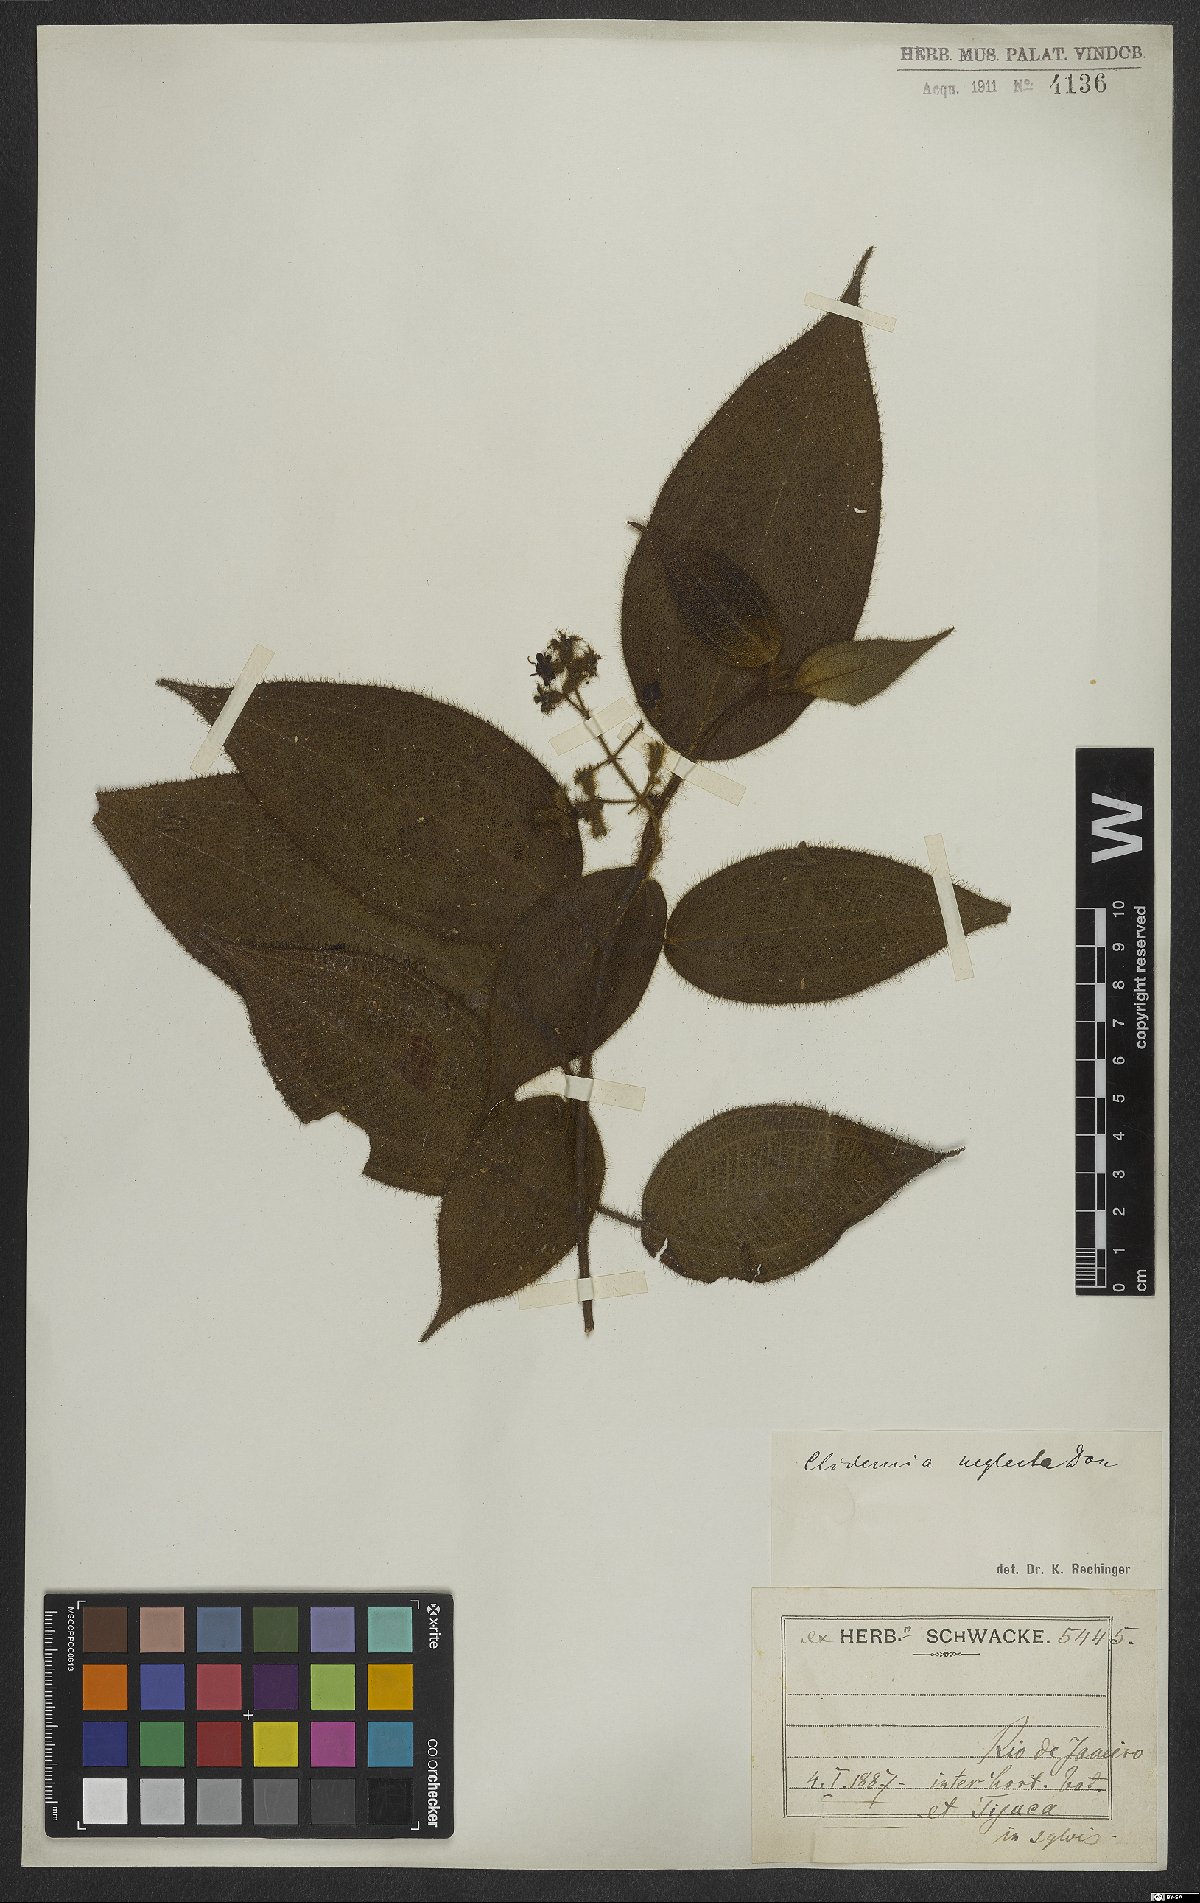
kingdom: Plantae
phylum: Tracheophyta
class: Magnoliopsida
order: Myrtales
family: Melastomataceae
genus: Miconia
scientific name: Miconia dependens
